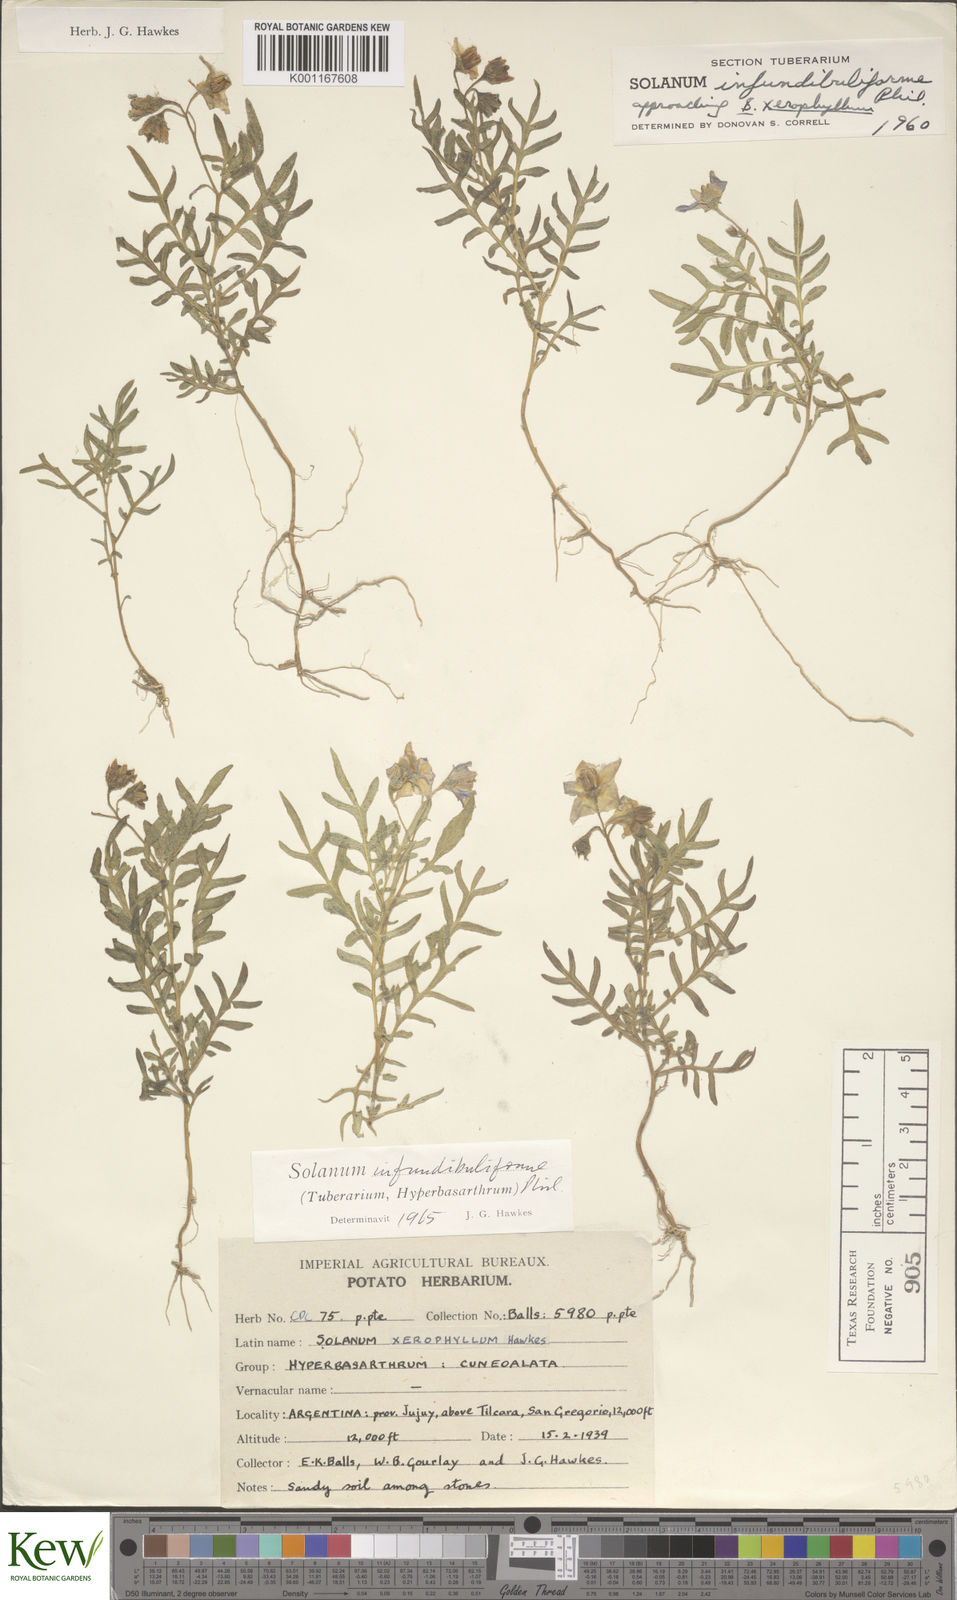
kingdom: Plantae
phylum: Tracheophyta
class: Magnoliopsida
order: Solanales
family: Solanaceae
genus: Solanum
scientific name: Solanum infundibuliforme
